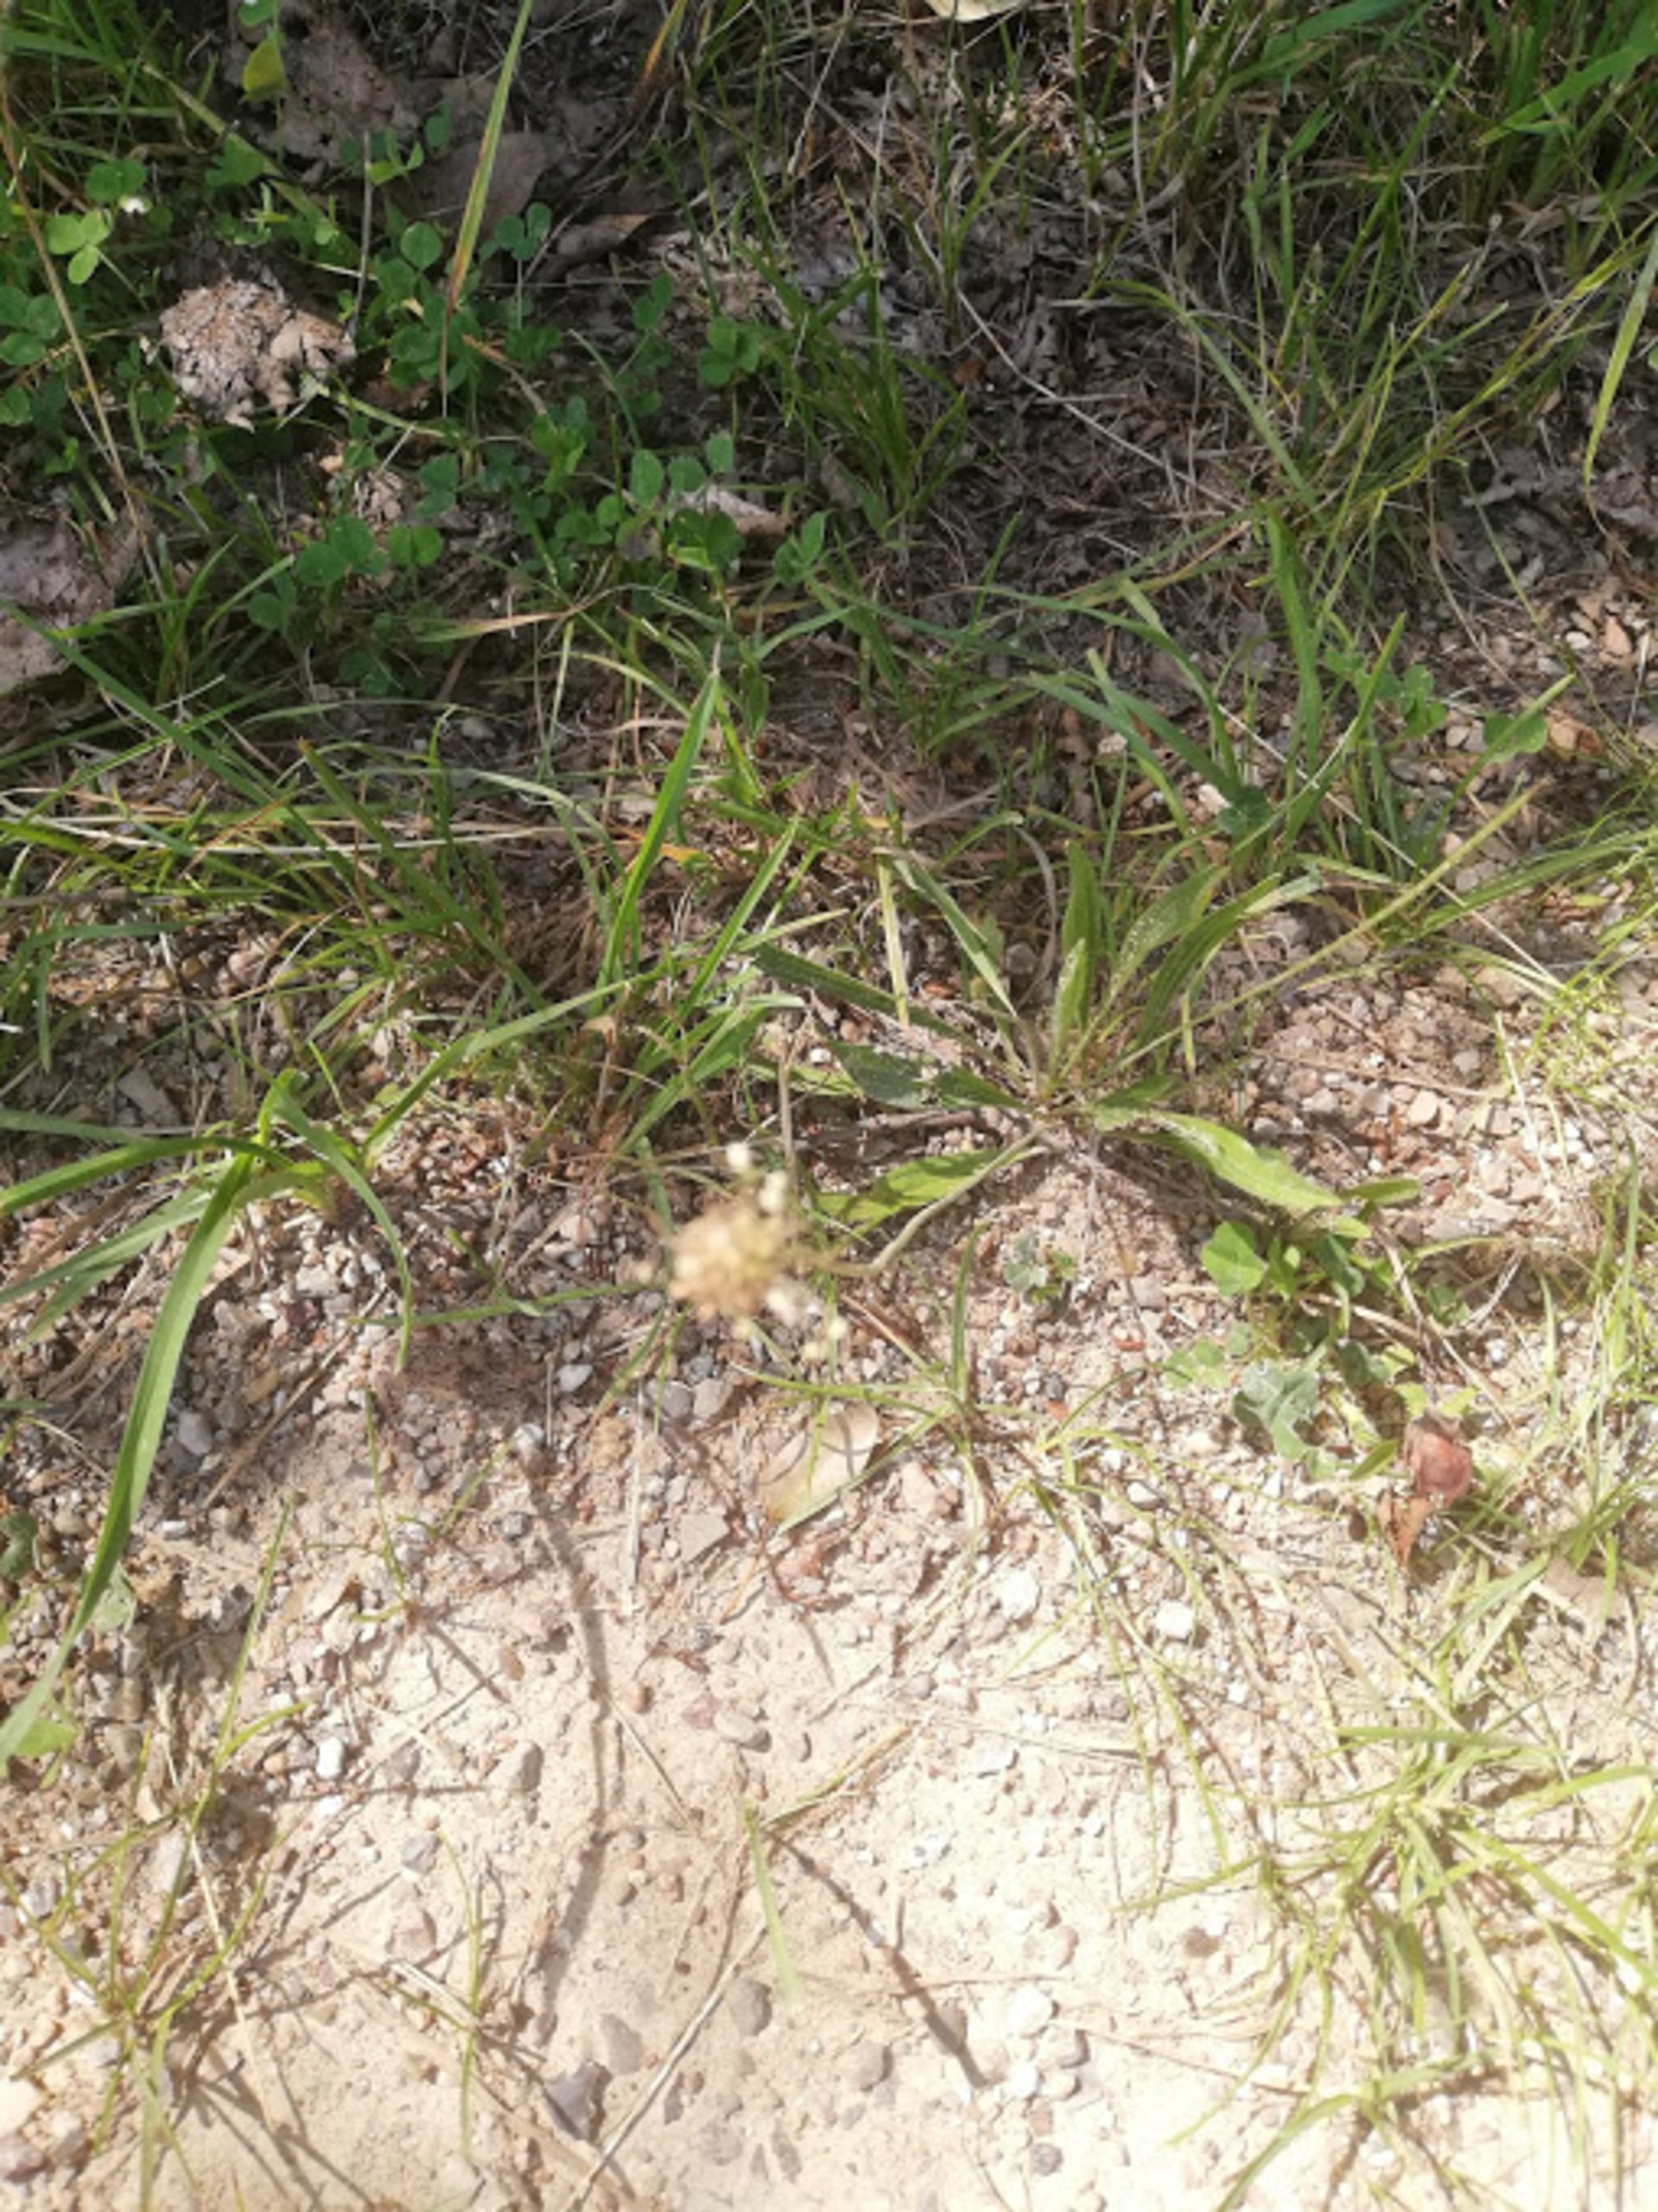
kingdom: Plantae
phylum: Tracheophyta
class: Magnoliopsida
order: Lamiales
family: Plantaginaceae
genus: Plantago
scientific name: Plantago lanceolata
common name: Lancet-vejbred
